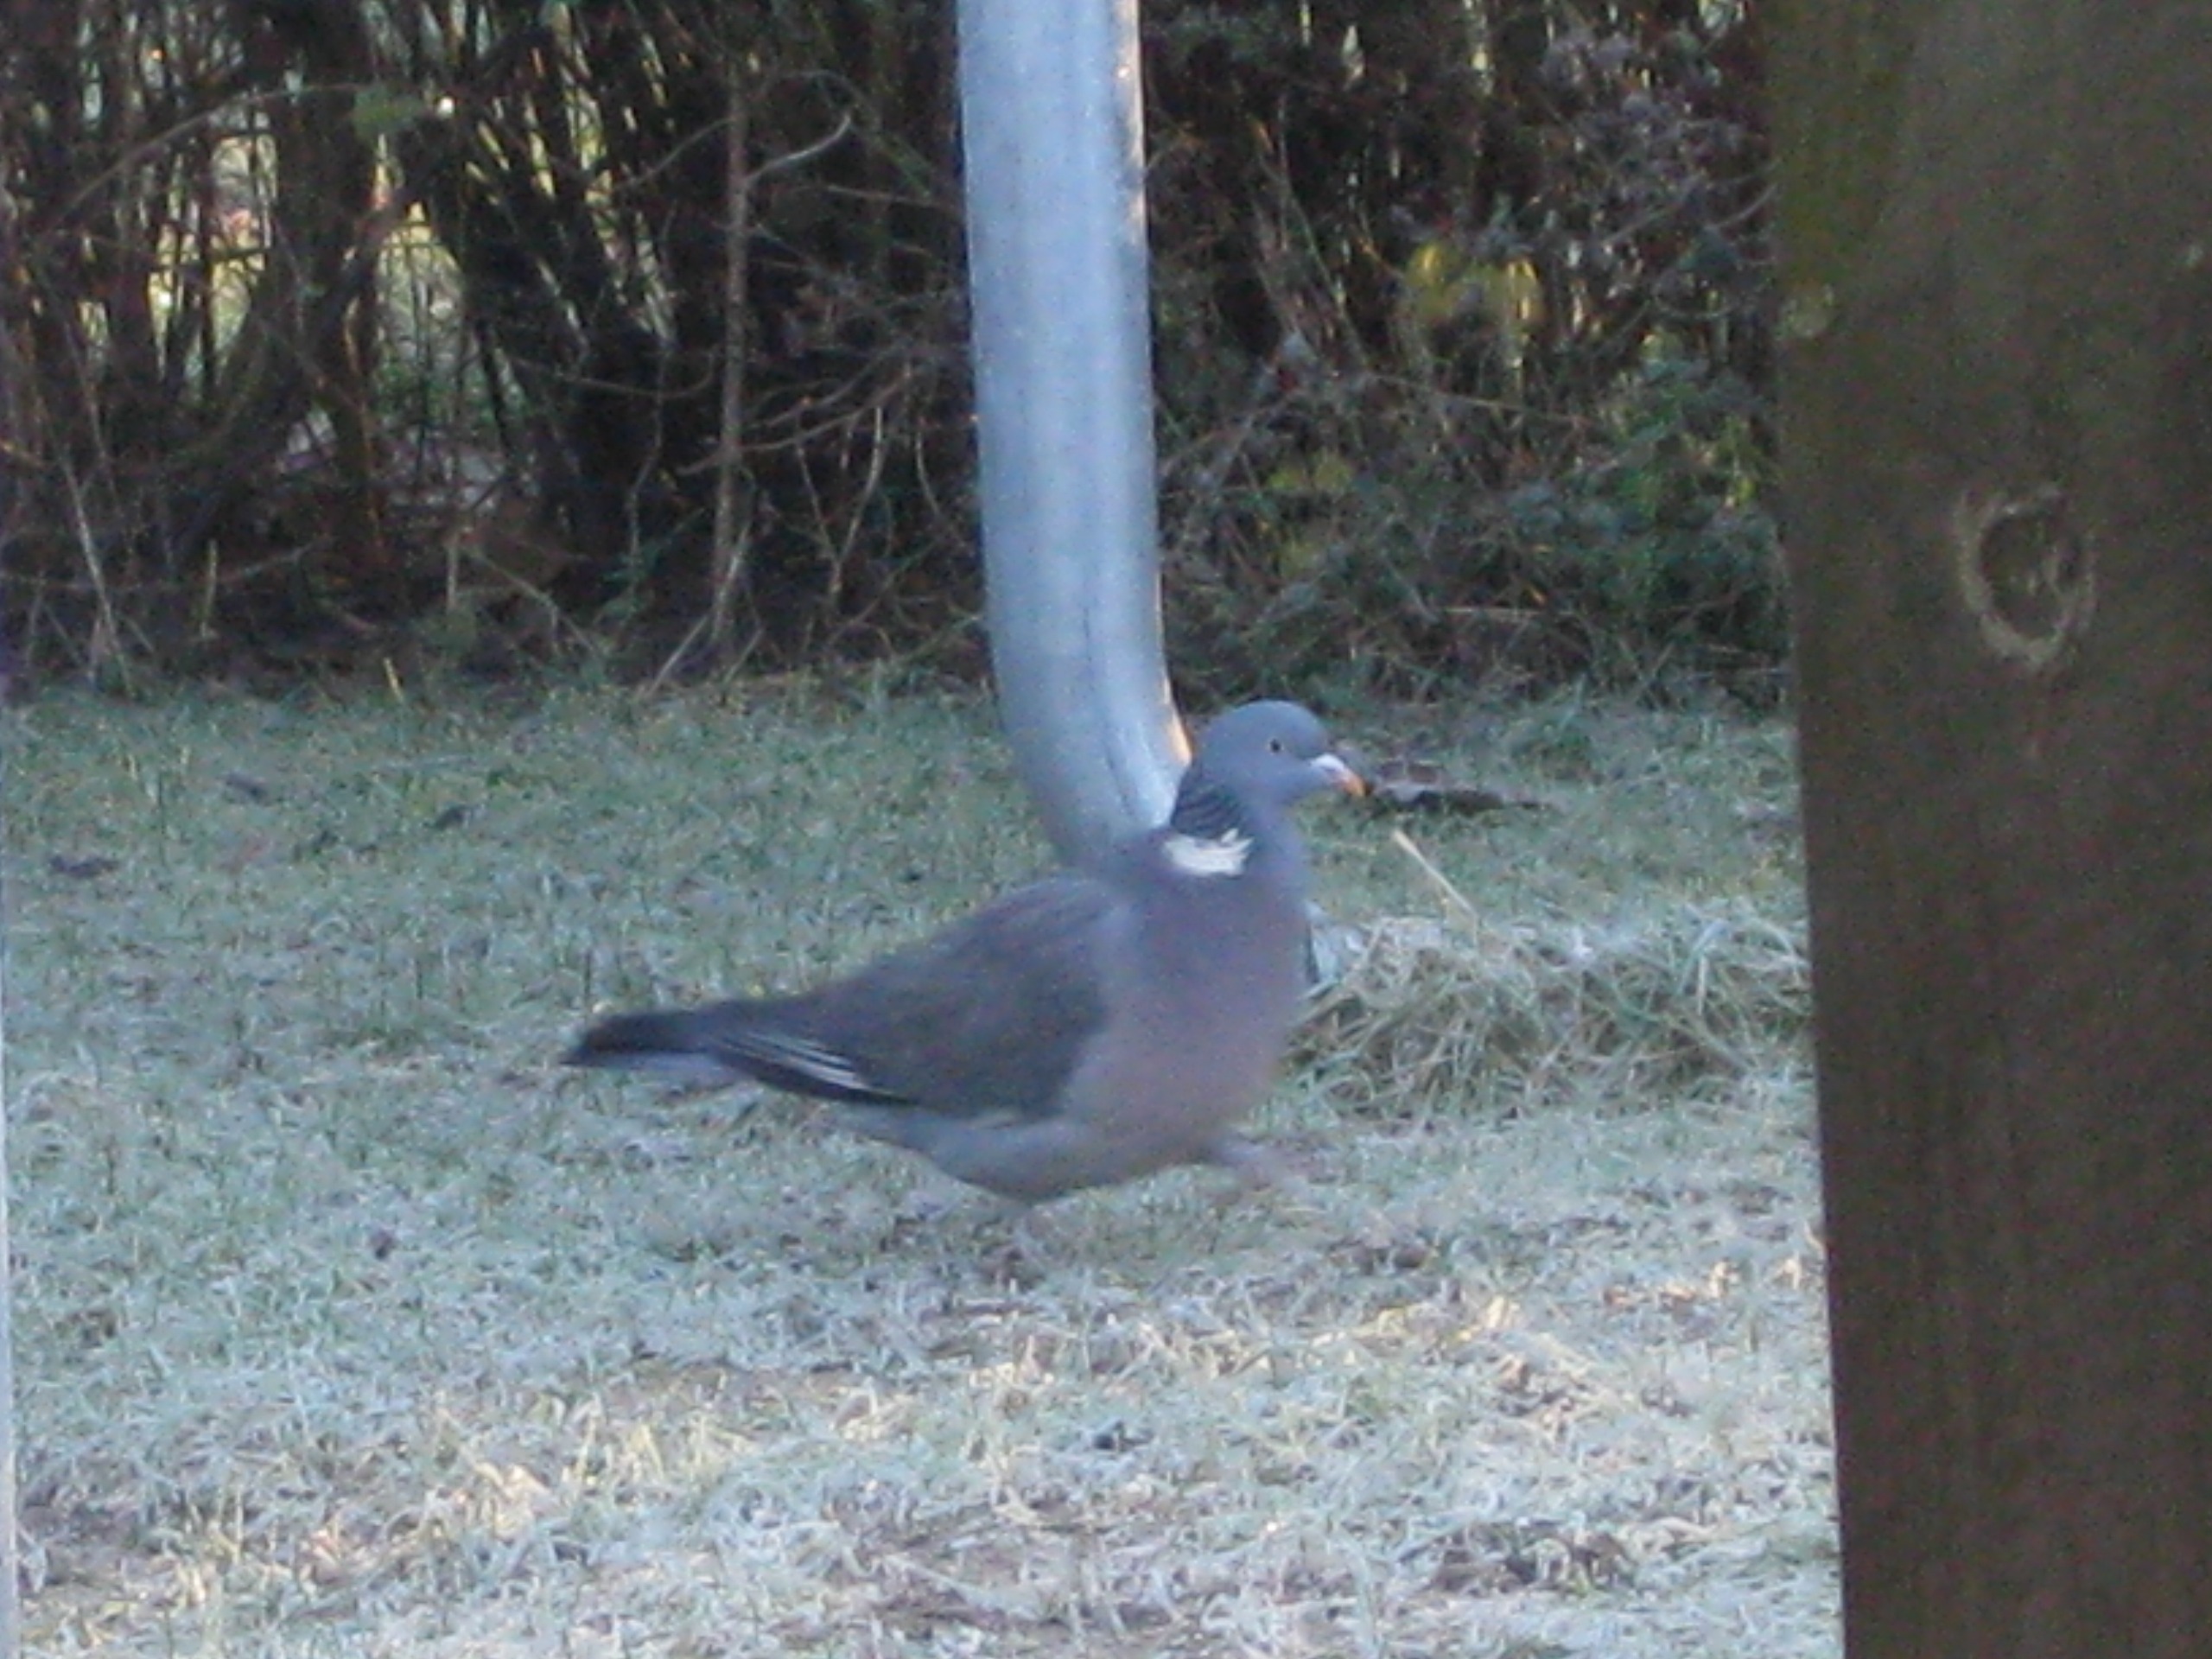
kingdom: Animalia
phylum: Chordata
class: Aves
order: Columbiformes
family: Columbidae
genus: Columba
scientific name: Columba palumbus
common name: Ringdue
